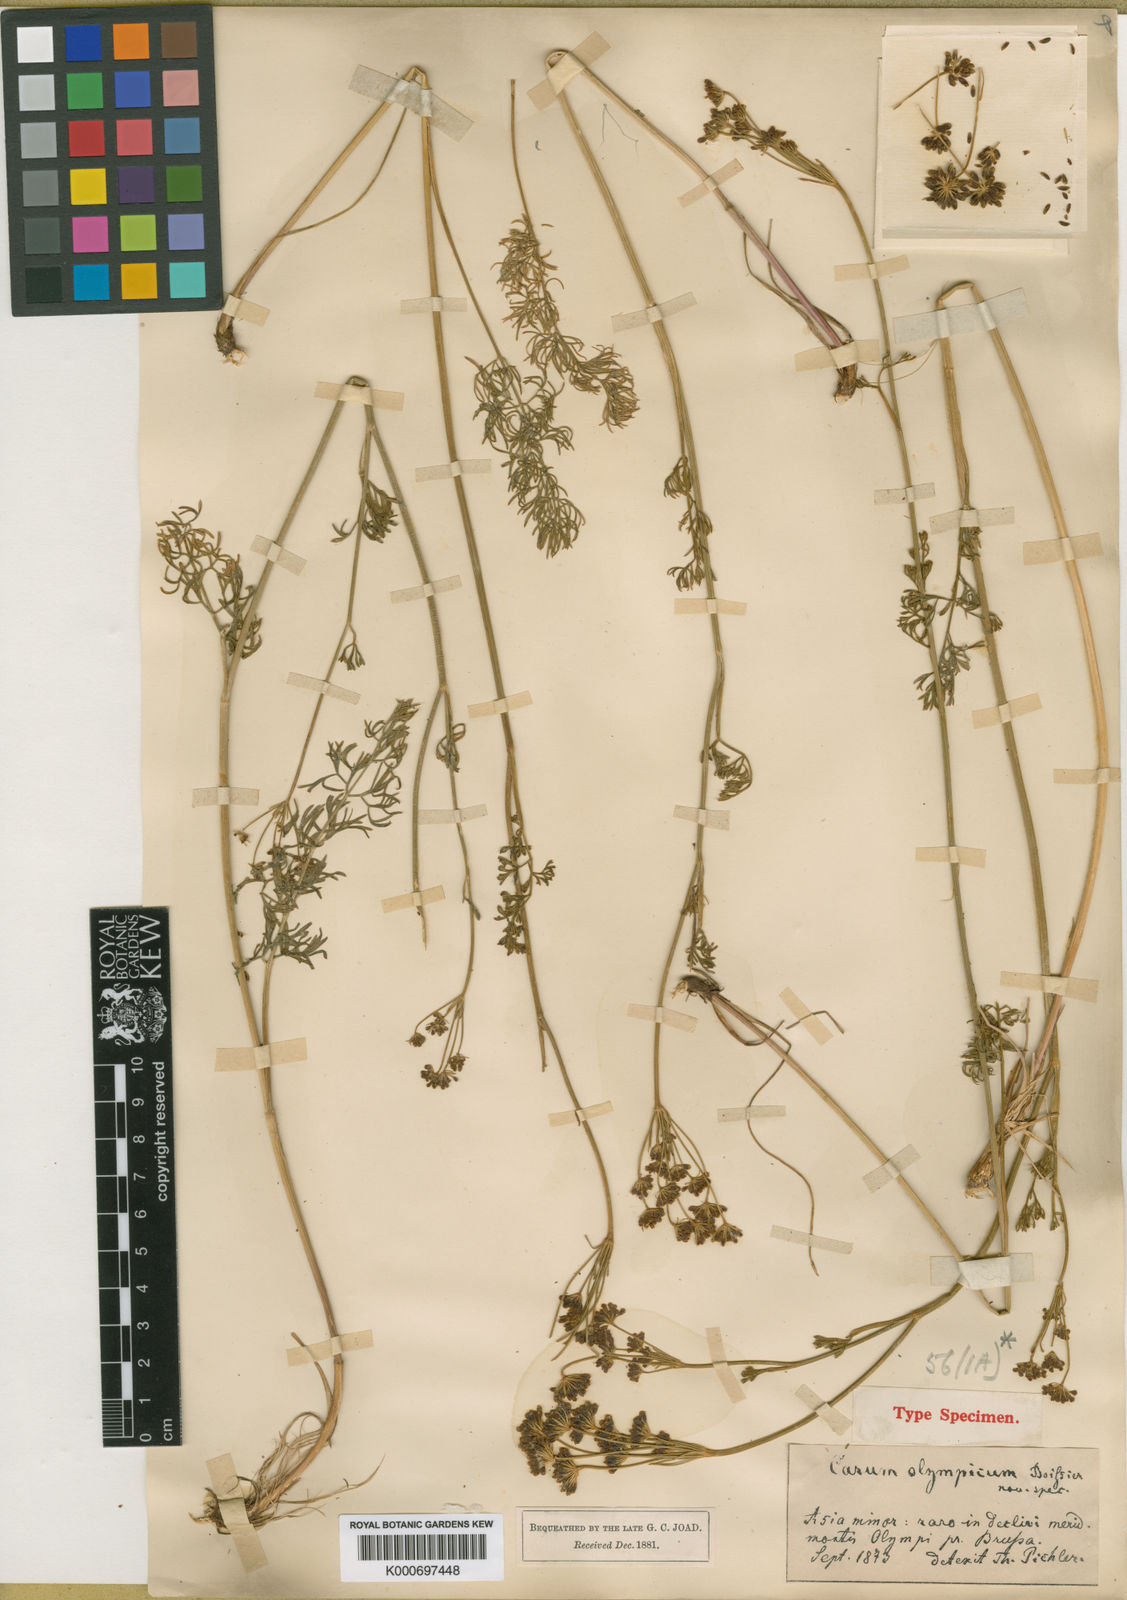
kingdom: Plantae
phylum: Tracheophyta
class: Magnoliopsida
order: Apiales
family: Apiaceae
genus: Gasparinia
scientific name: Gasparinia peucedanoides
